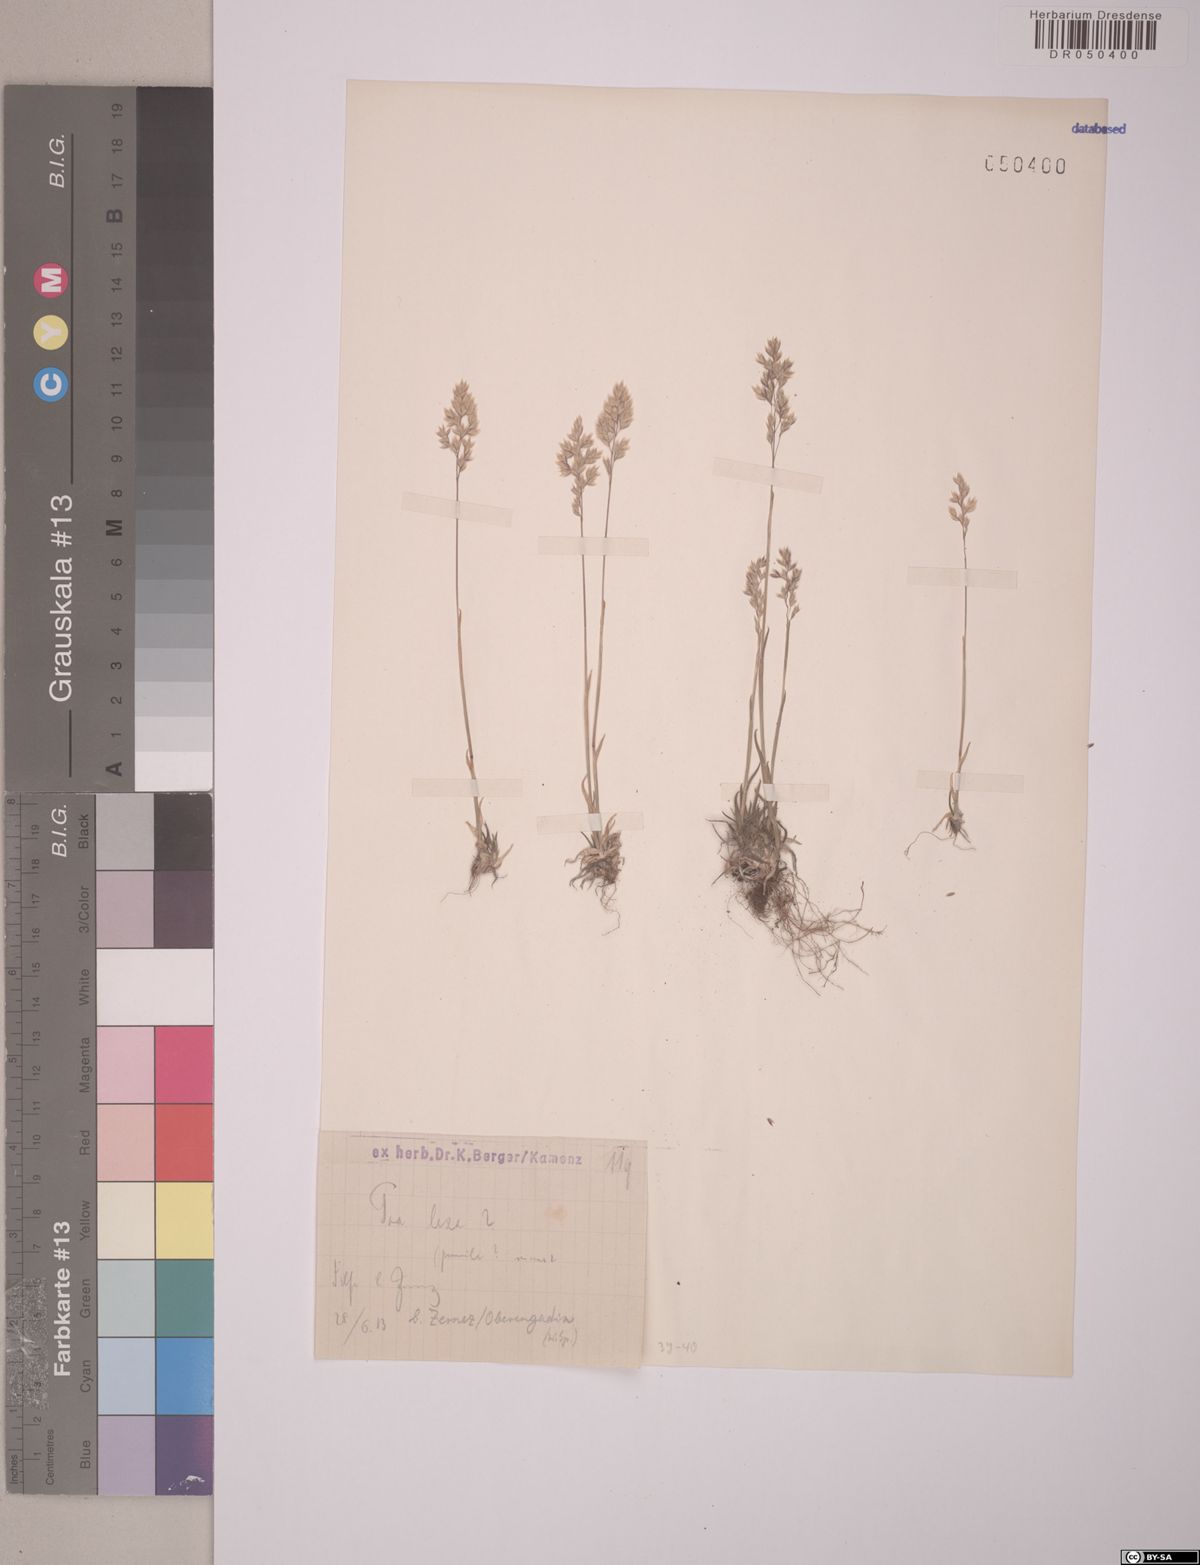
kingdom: Plantae
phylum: Tracheophyta
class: Liliopsida
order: Poales
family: Poaceae
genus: Poa
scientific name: Poa laxa
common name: Lax bluegrass
